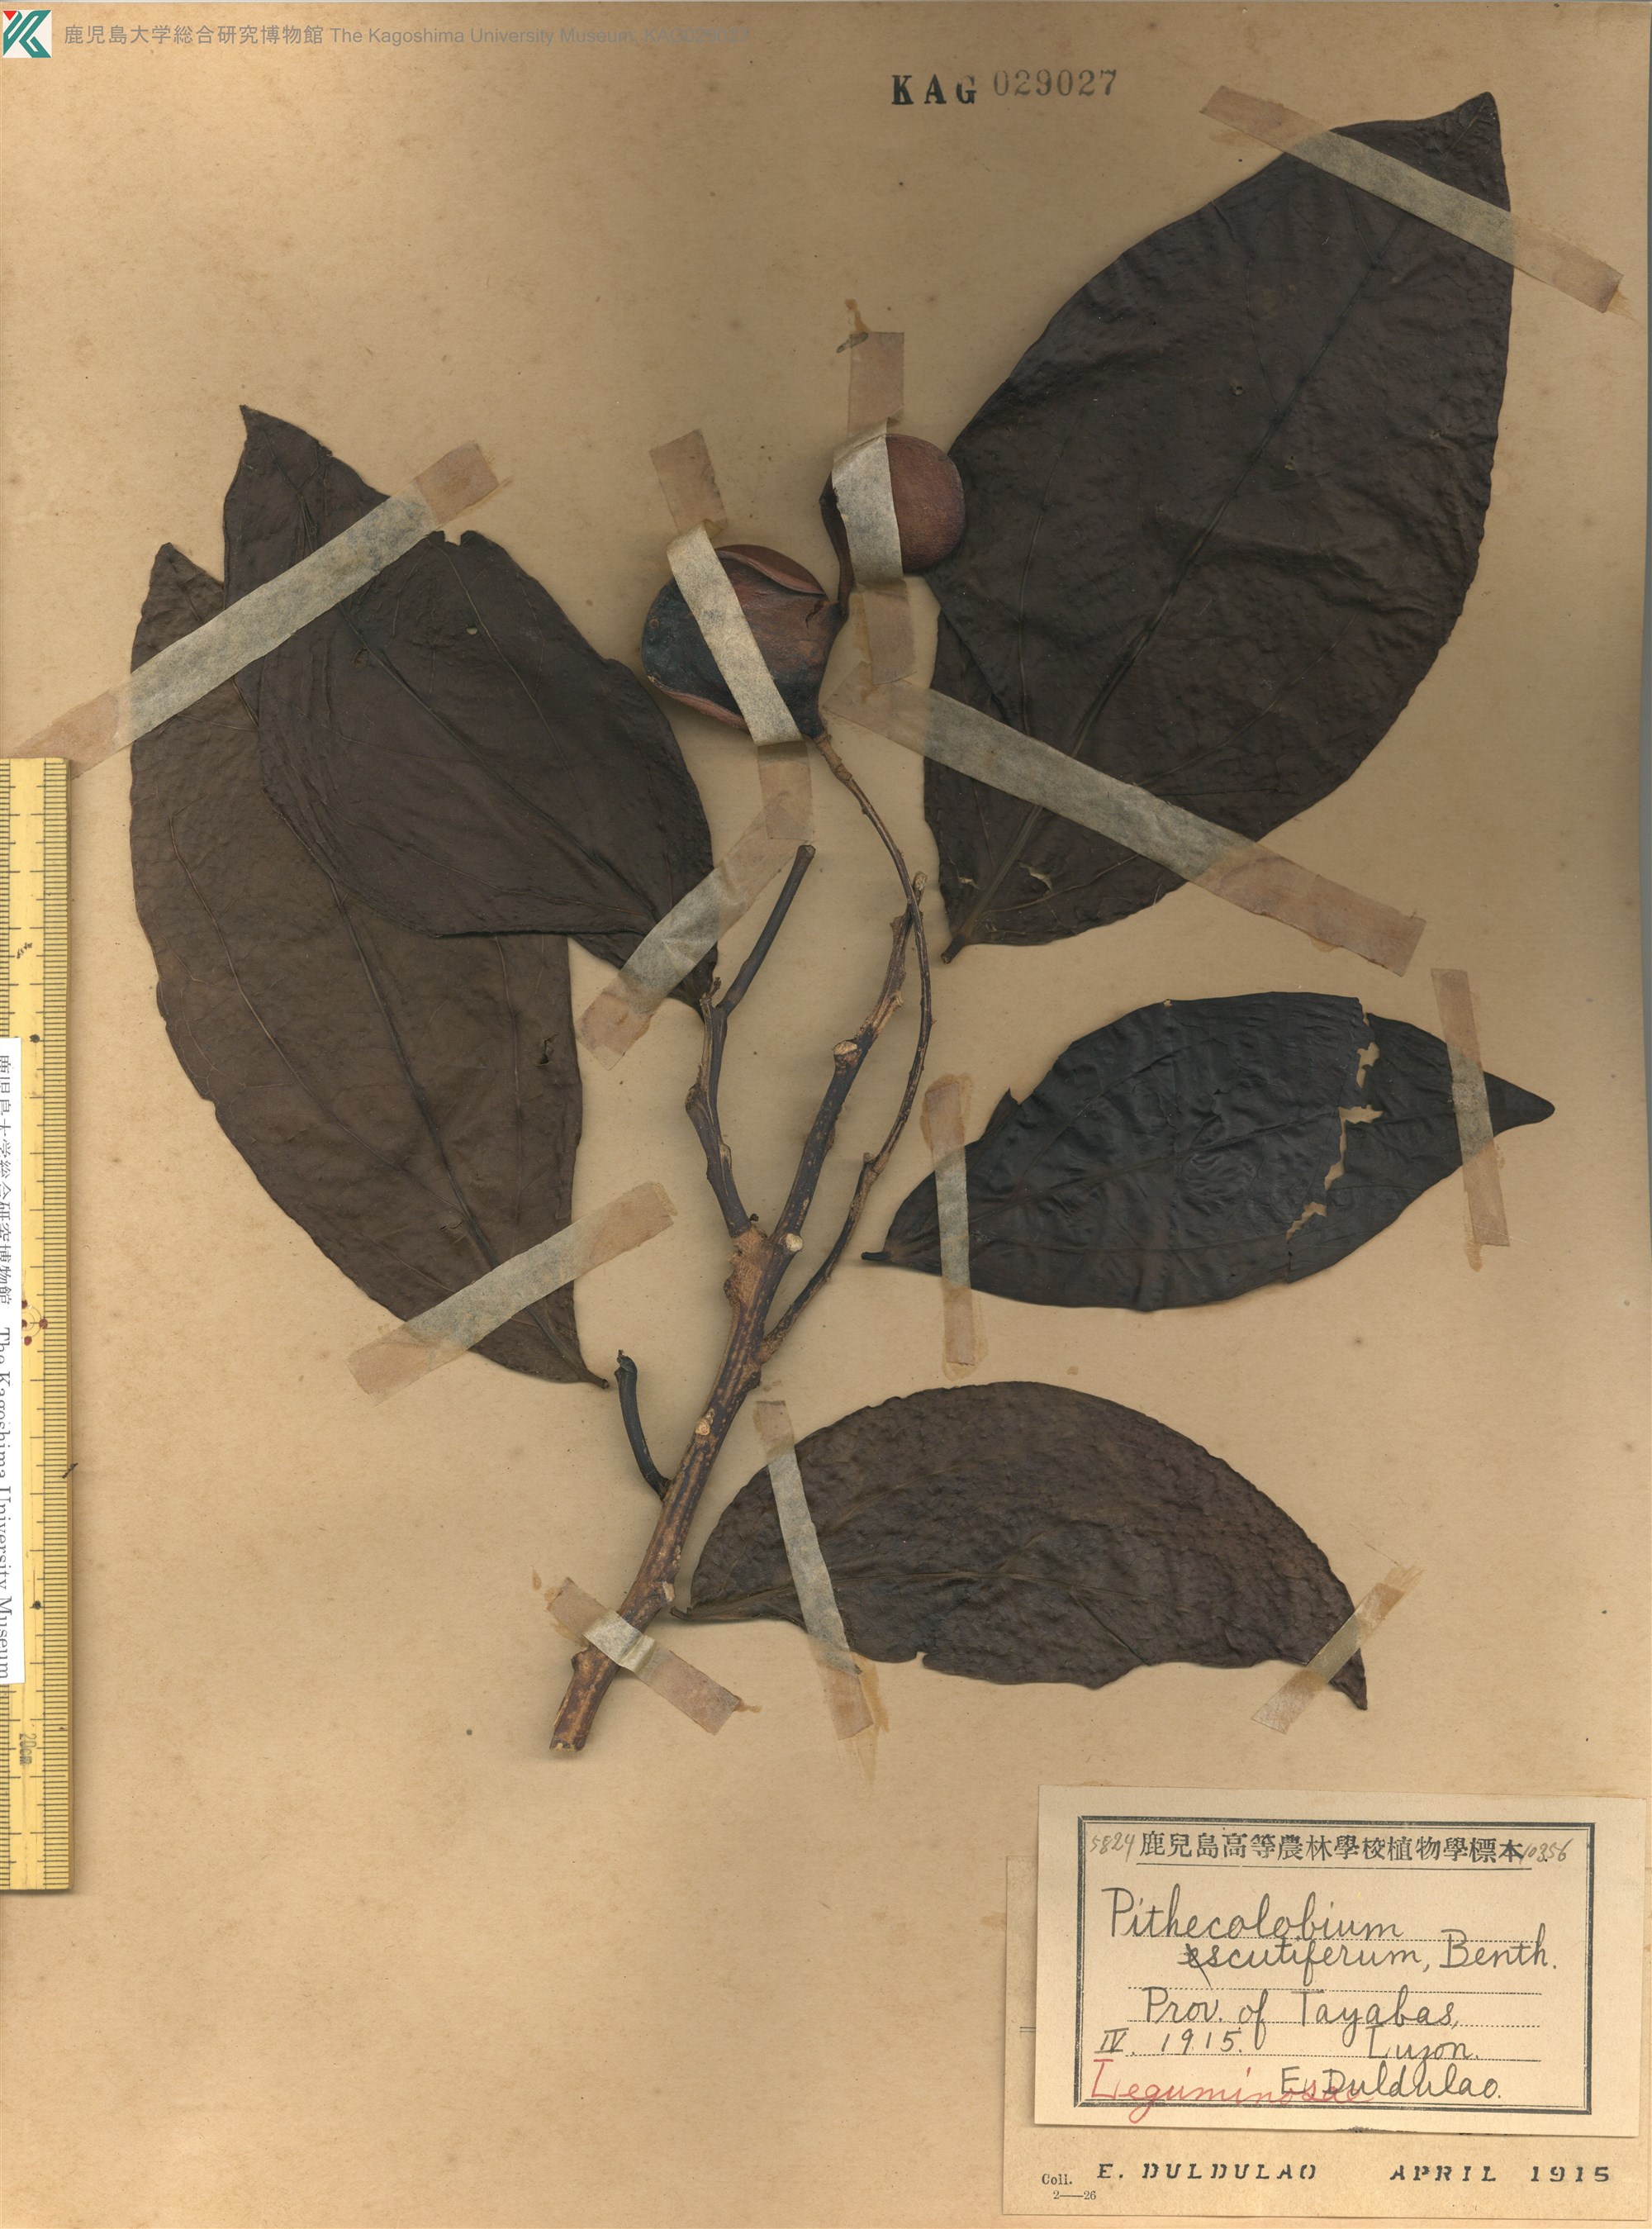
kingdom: Plantae
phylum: Tracheophyta
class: Magnoliopsida
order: Fabales
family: Fabaceae
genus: Archidendron
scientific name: Archidendron scutiferum
